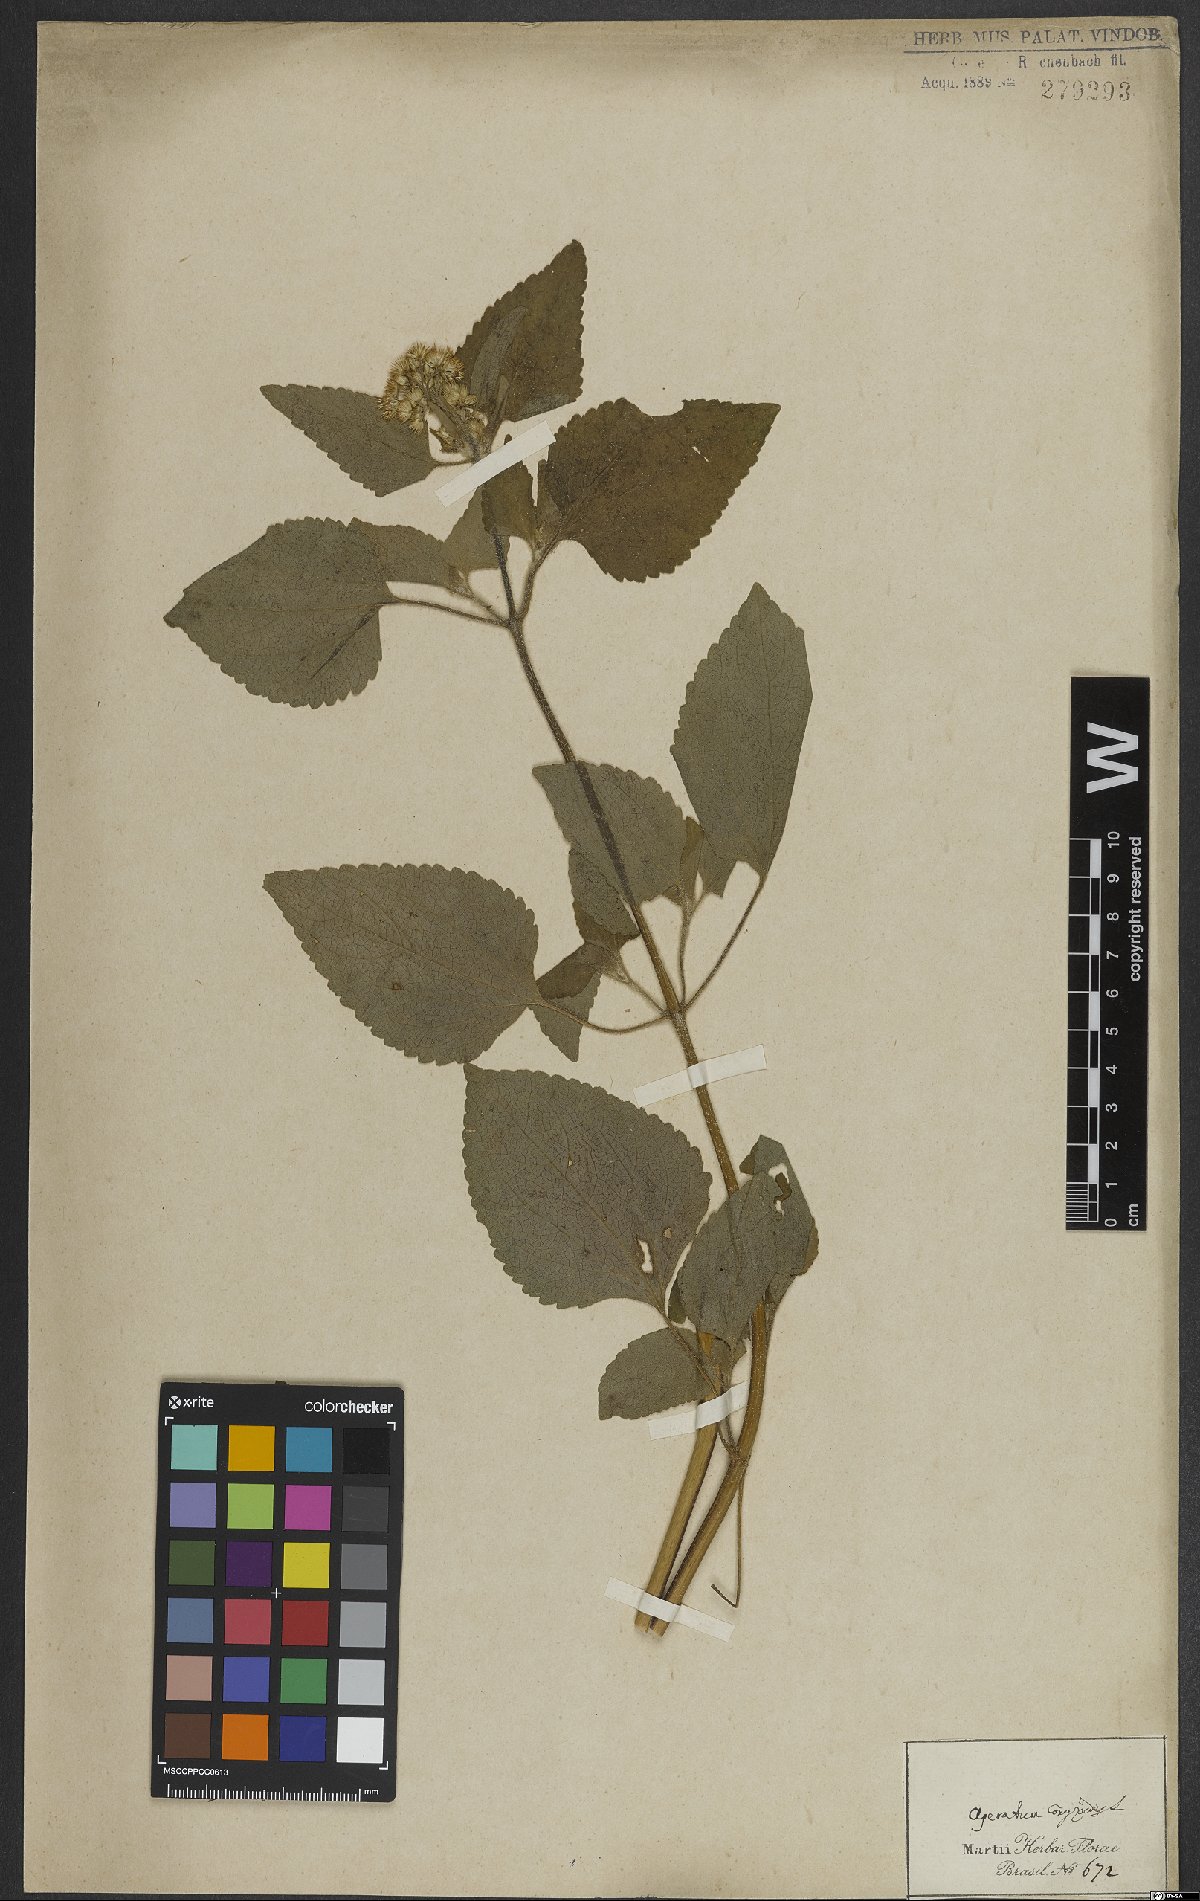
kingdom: Plantae
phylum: Tracheophyta
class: Magnoliopsida
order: Asterales
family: Asteraceae
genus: Ageratum
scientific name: Ageratum conyzoides
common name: Tropical whiteweed
